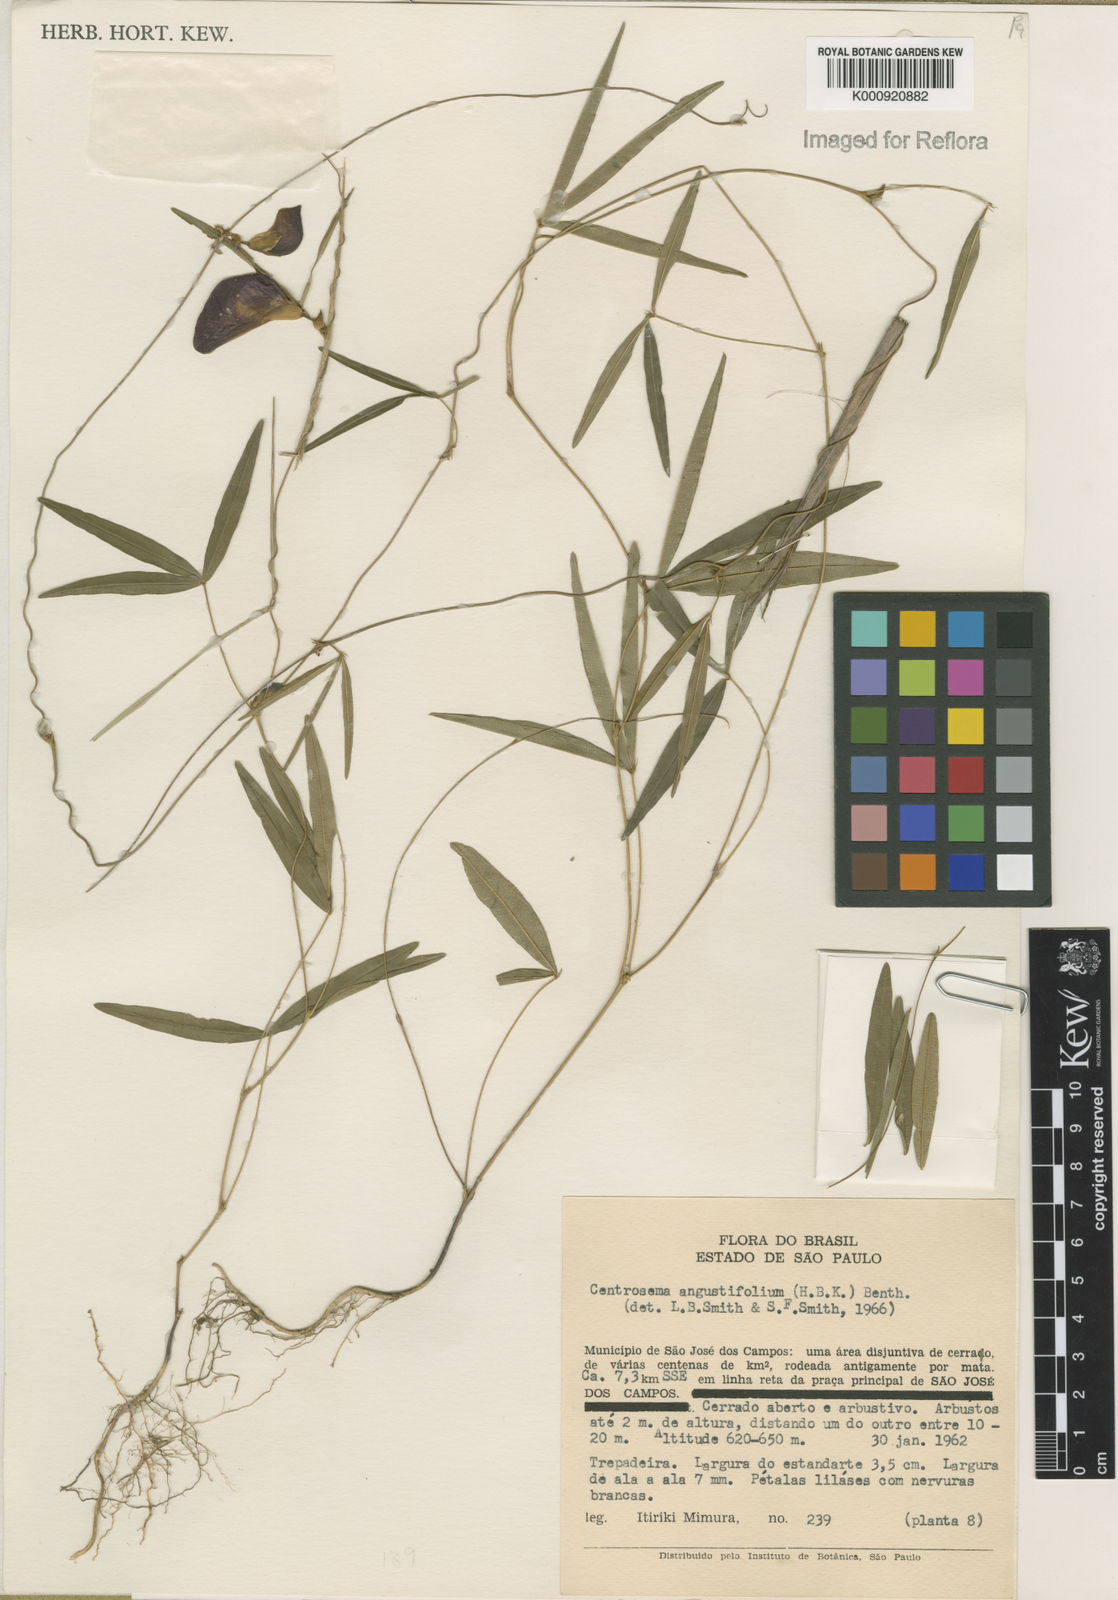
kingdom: Plantae
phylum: Tracheophyta
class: Magnoliopsida
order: Fabales
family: Fabaceae
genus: Centrosema
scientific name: Centrosema
